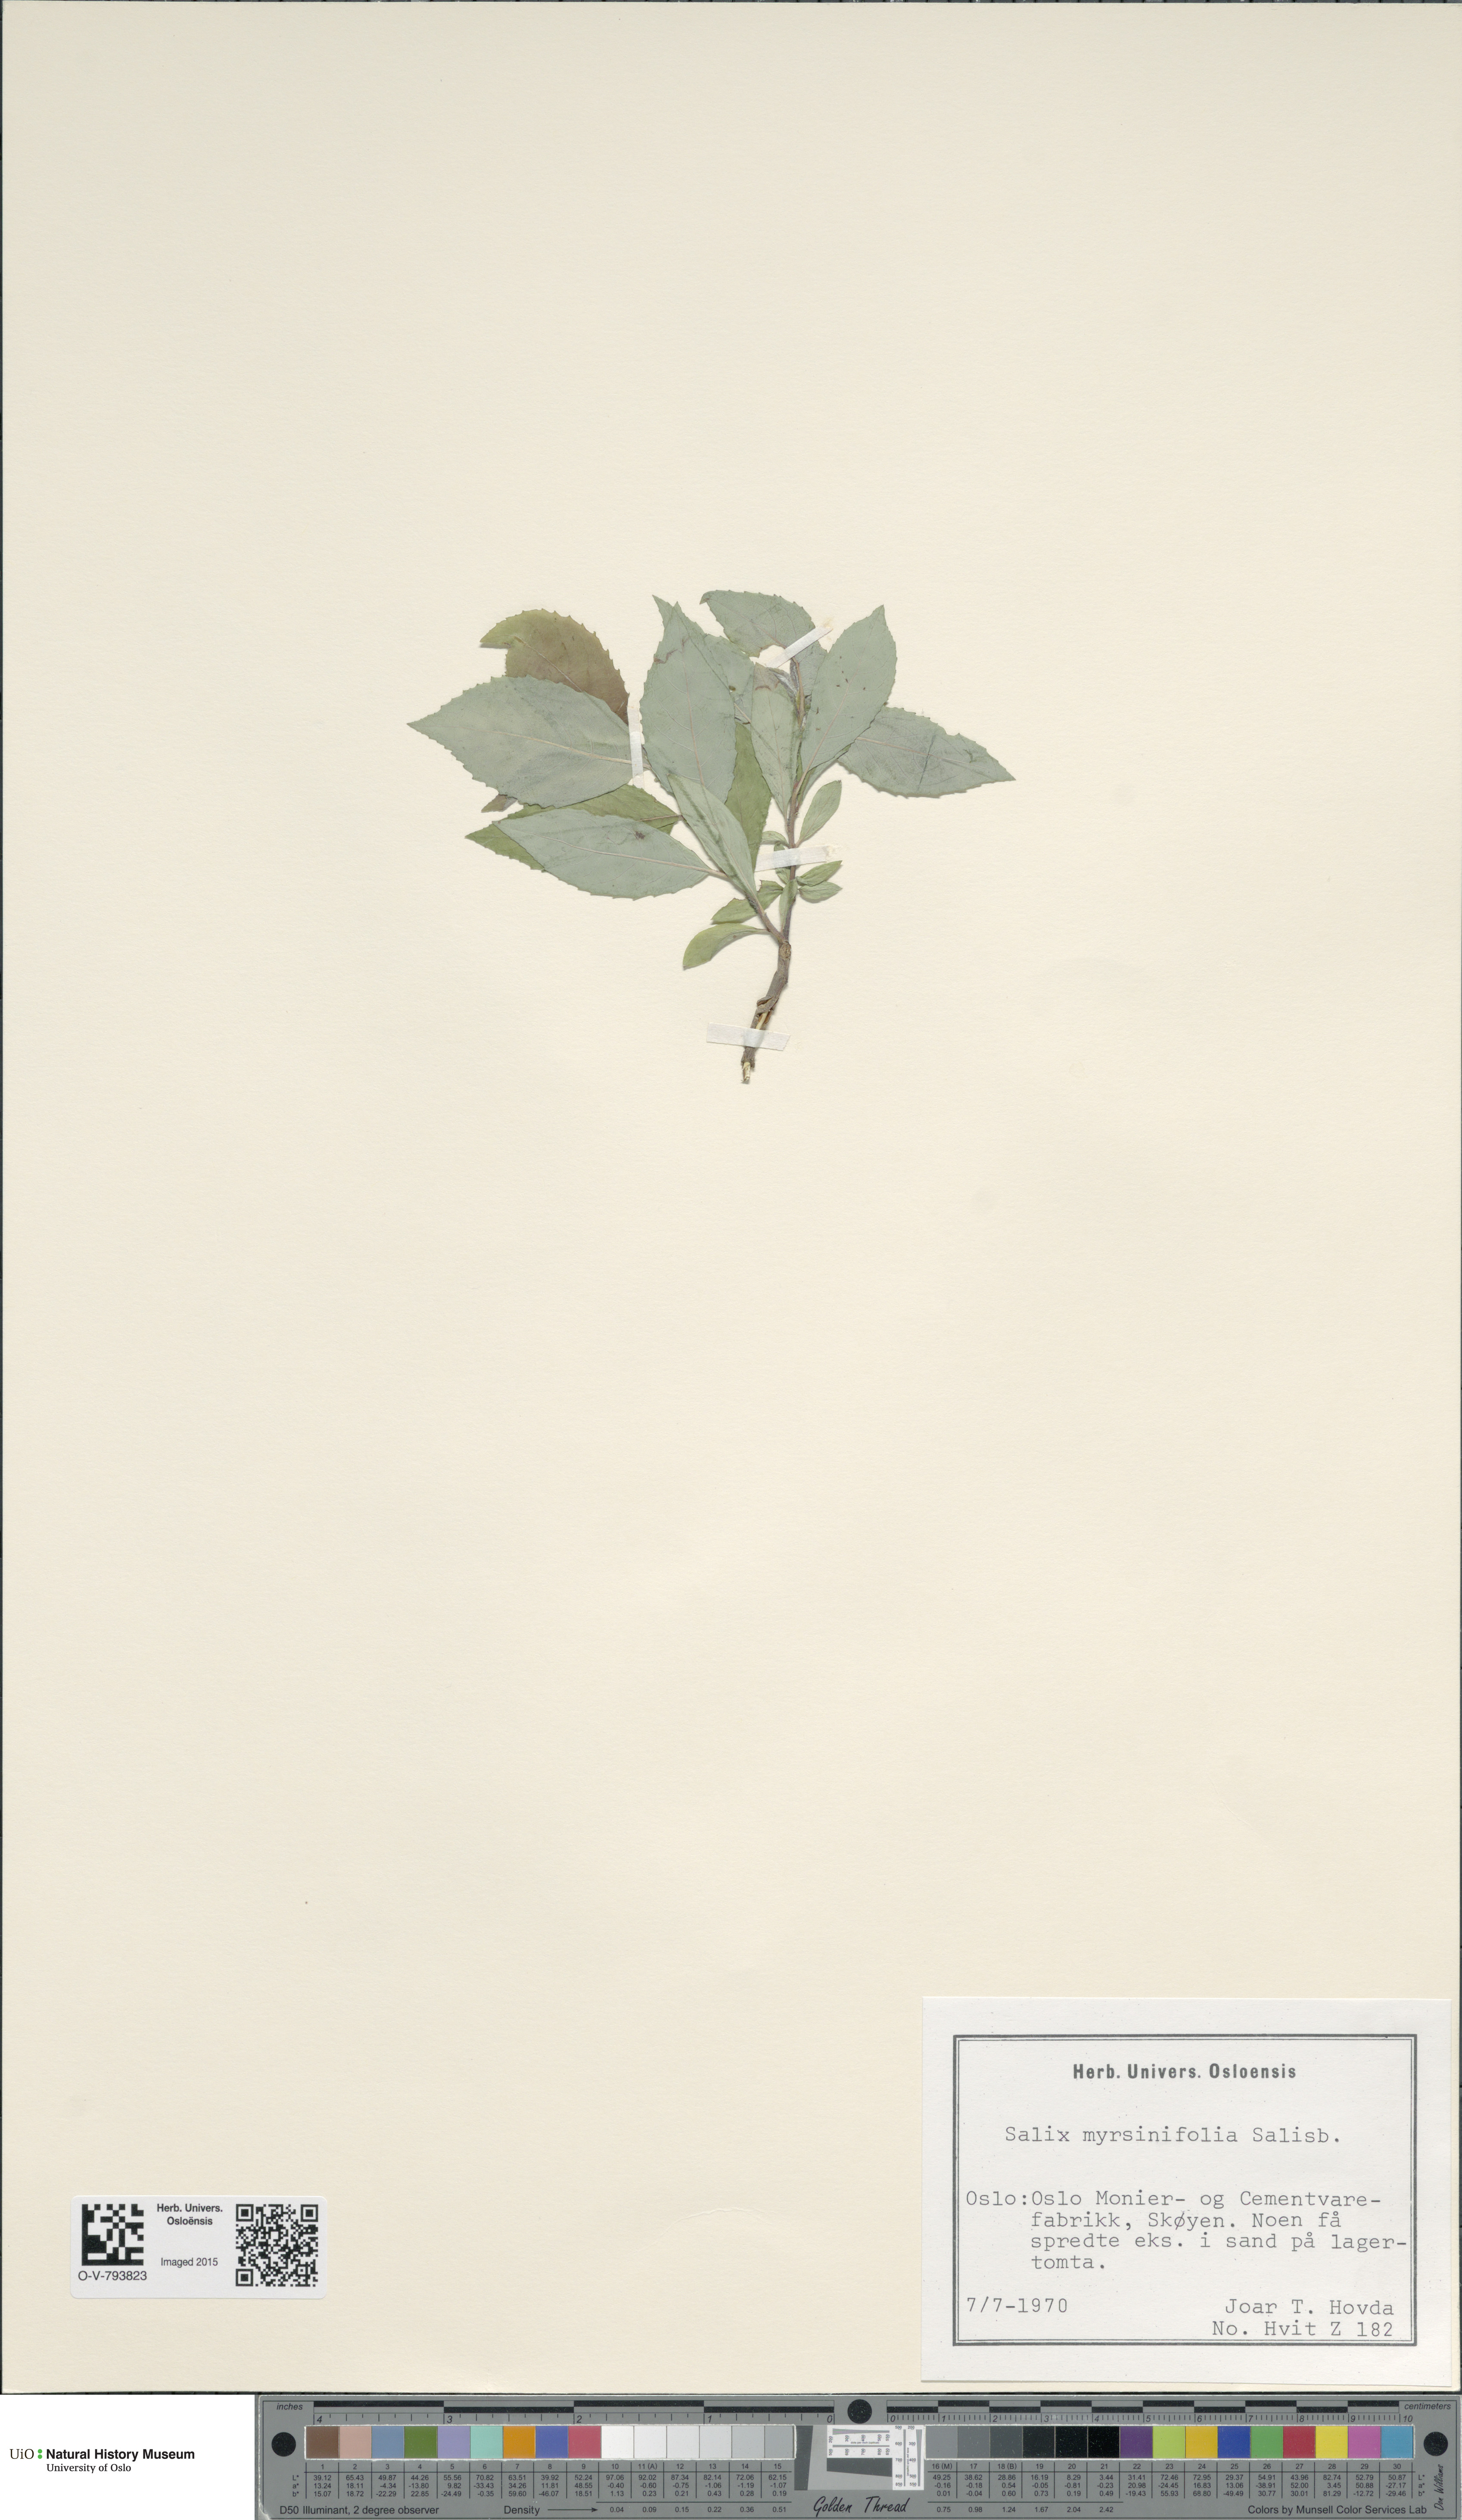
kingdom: Plantae
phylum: Tracheophyta
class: Magnoliopsida
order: Malpighiales
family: Salicaceae
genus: Salix
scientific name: Salix myrsinifolia
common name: Dark-leaved willow
